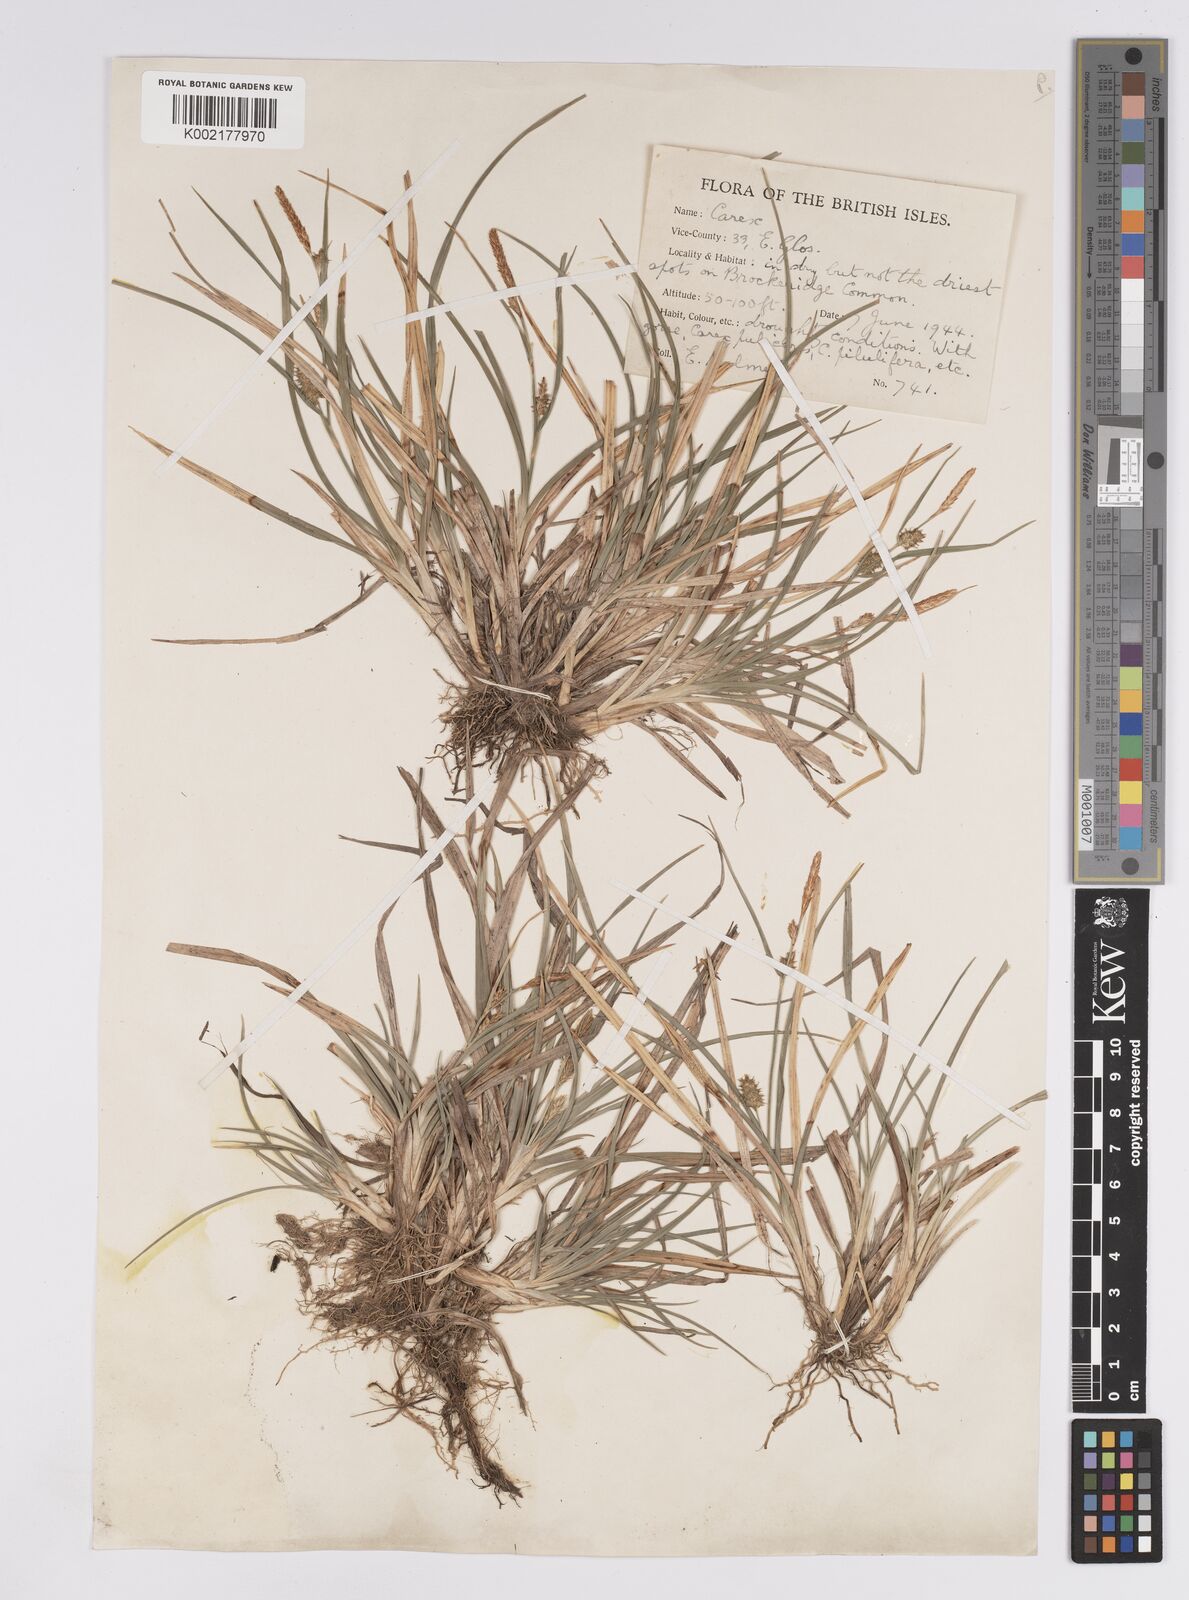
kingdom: Plantae
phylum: Tracheophyta
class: Liliopsida
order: Poales
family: Cyperaceae
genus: Carex
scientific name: Carex demissa
